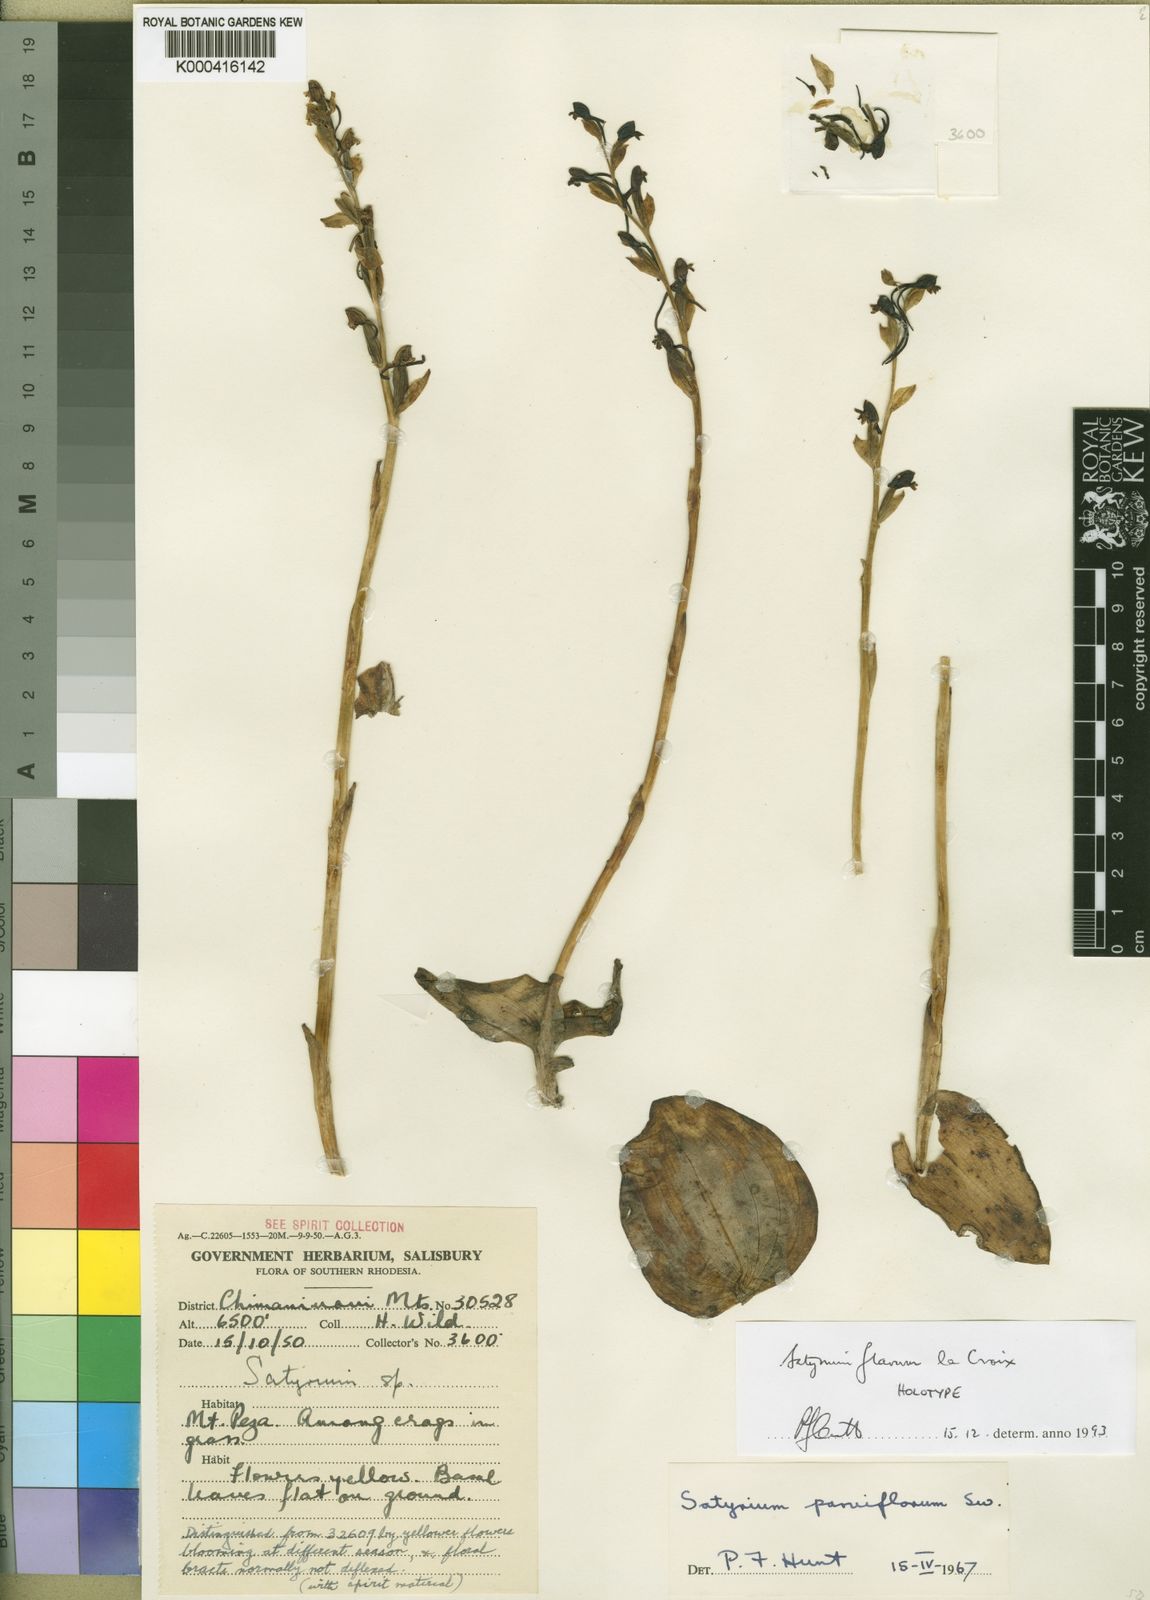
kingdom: Plantae
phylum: Tracheophyta
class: Liliopsida
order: Asparagales
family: Orchidaceae
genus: Satyrium
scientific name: Satyrium parviflorum
